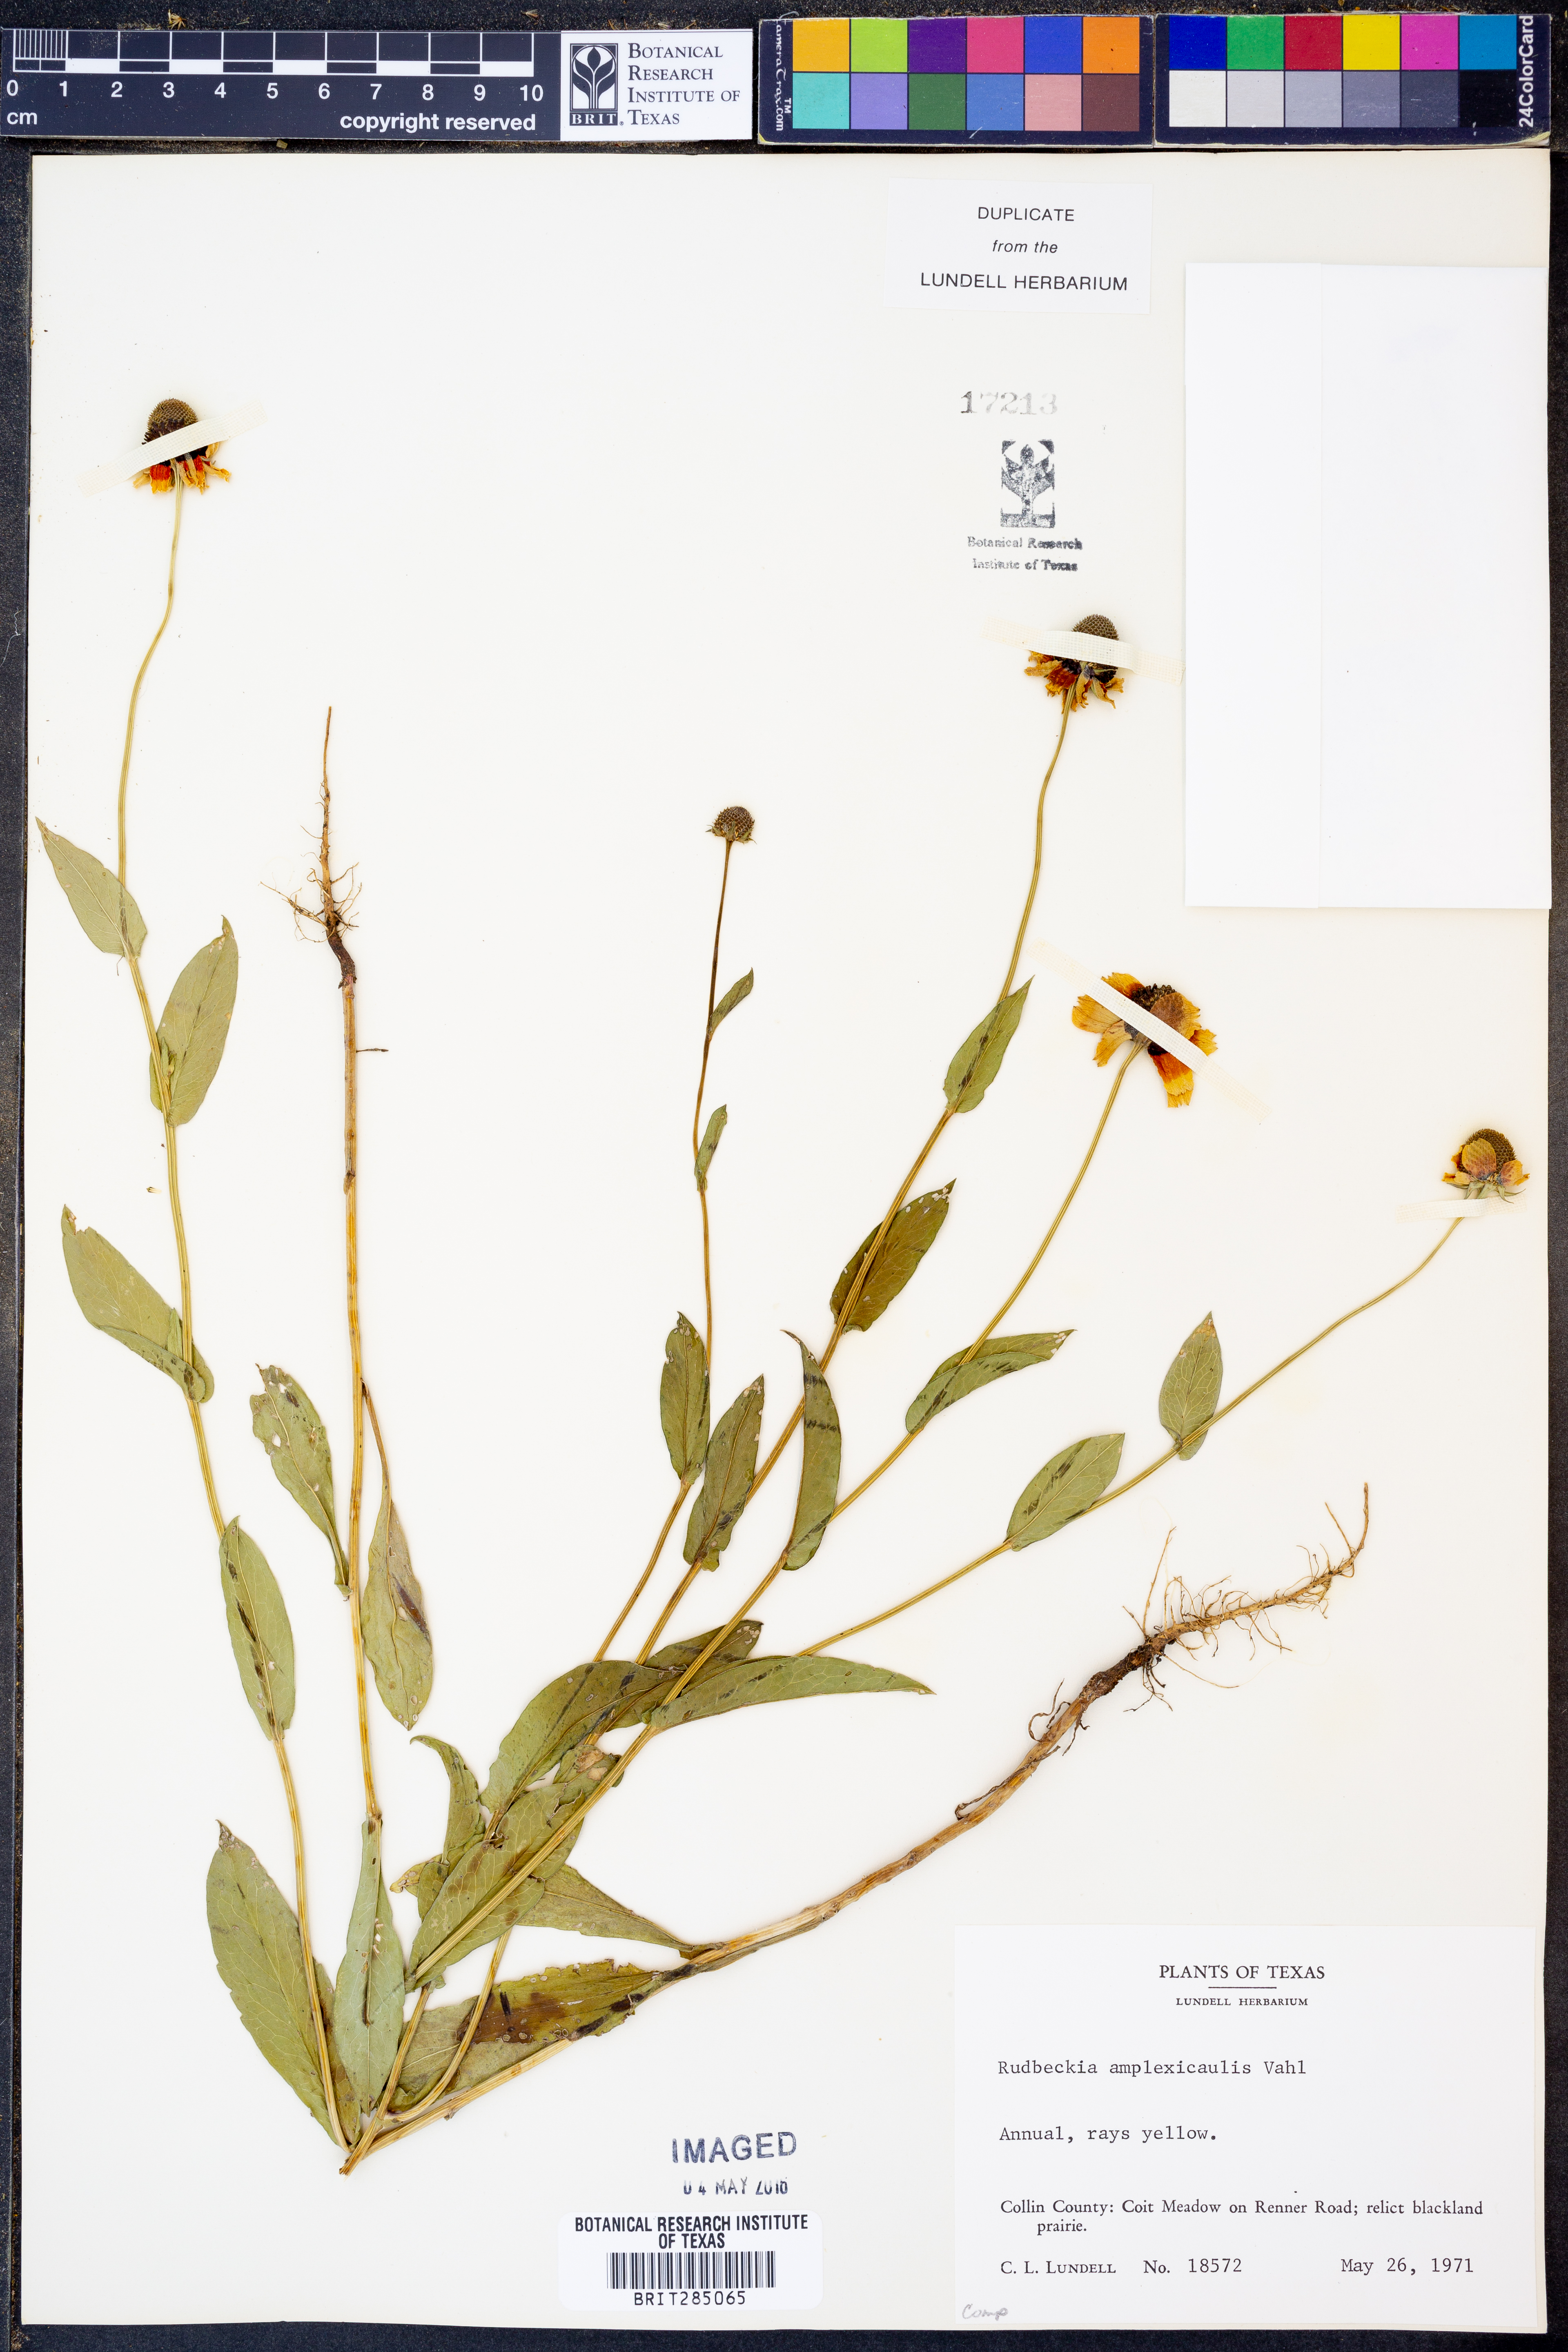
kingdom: Plantae
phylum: Tracheophyta
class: Magnoliopsida
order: Asterales
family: Asteraceae
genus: Rudbeckia
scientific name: Rudbeckia amplexicaulis
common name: Clasping-leaf coneflower
